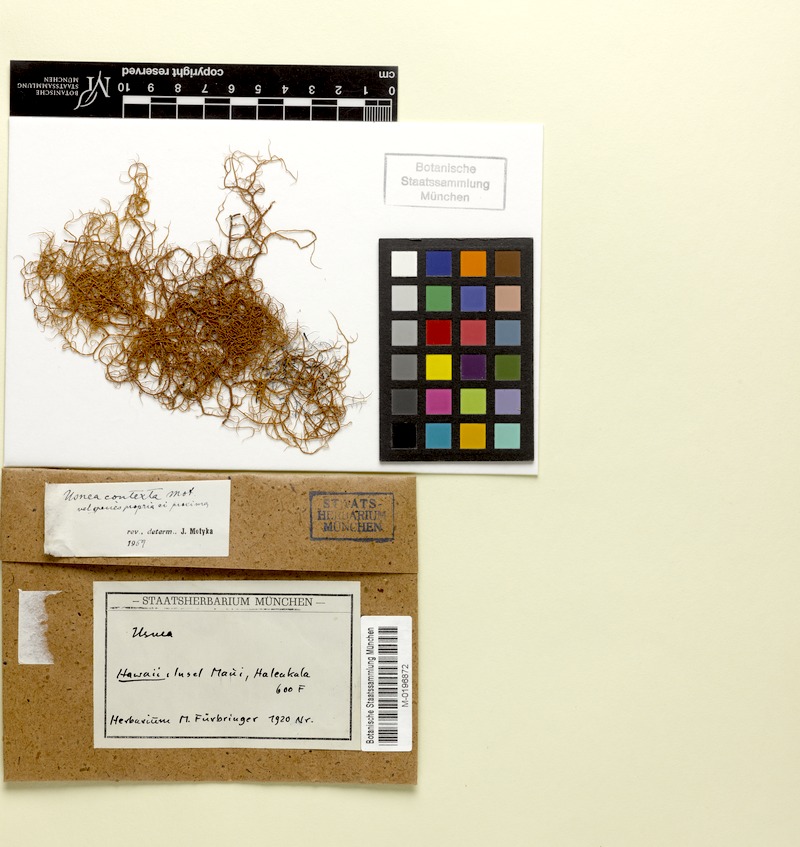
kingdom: Fungi
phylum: Ascomycota
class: Lecanoromycetes
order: Lecanorales
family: Parmeliaceae
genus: Usnea
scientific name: Usnea contexta
